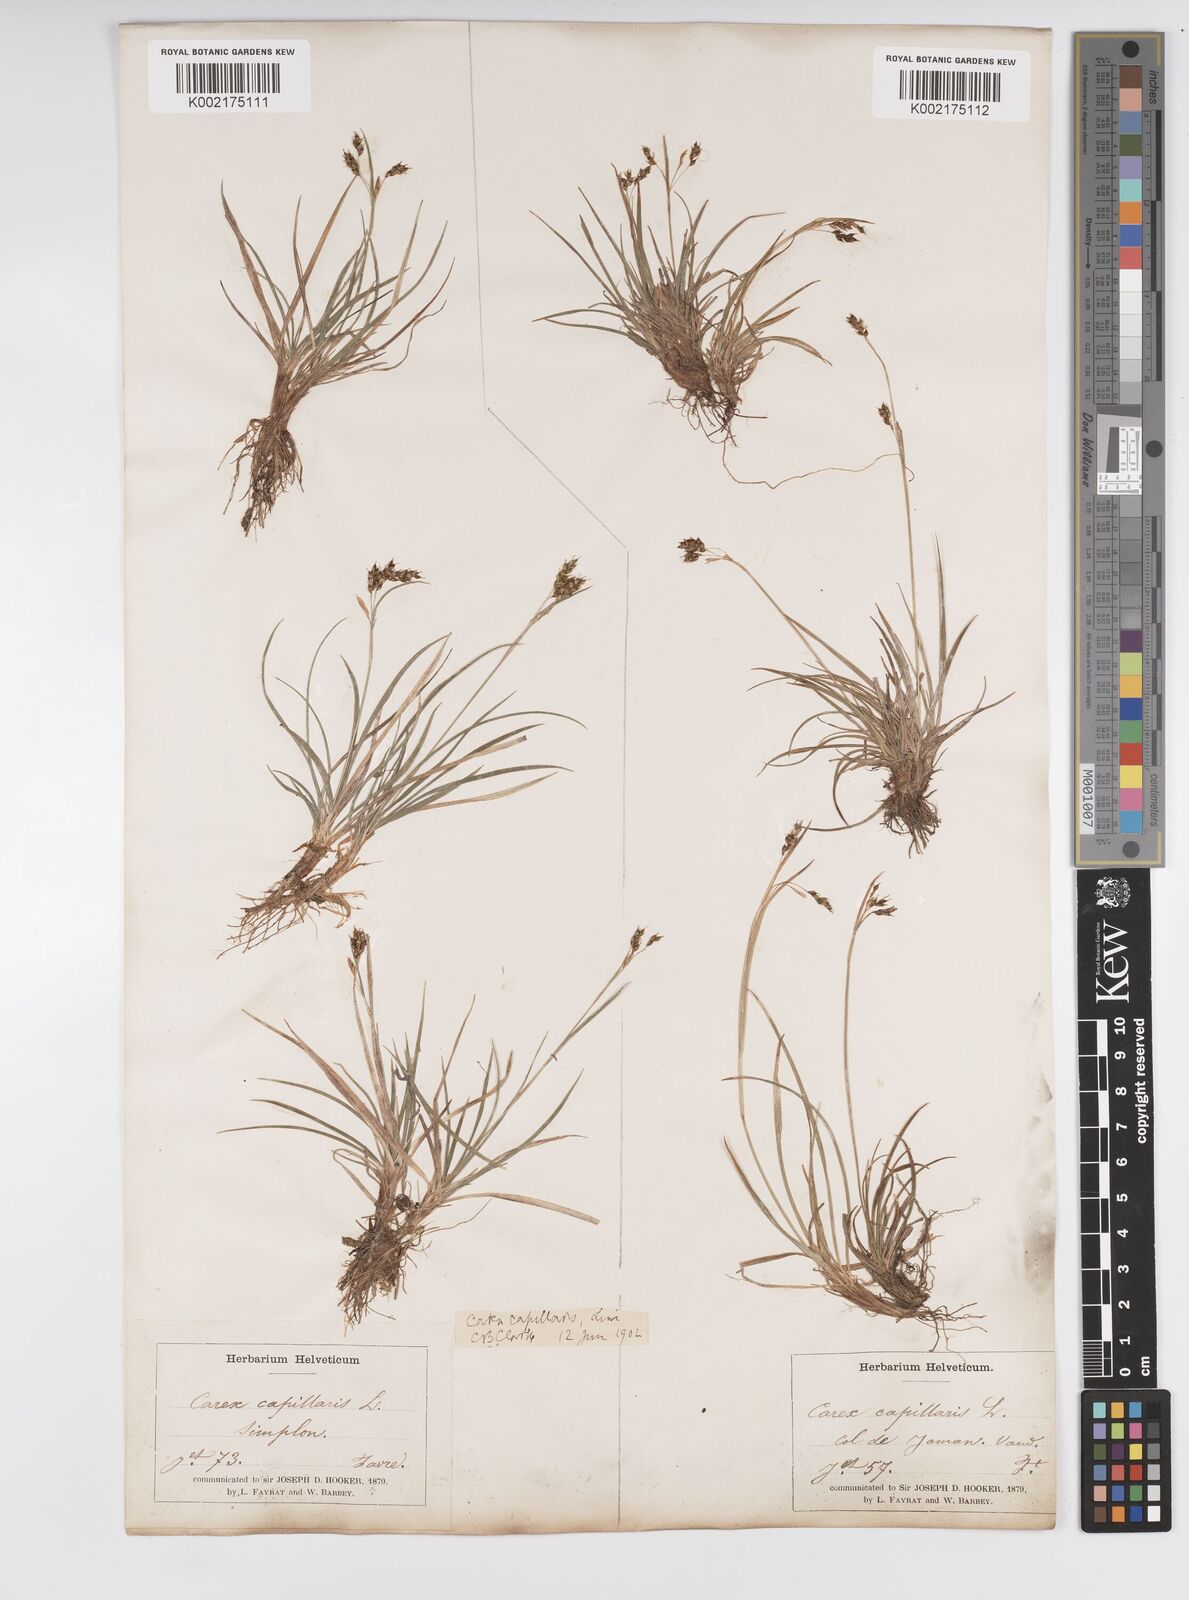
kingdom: Plantae
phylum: Tracheophyta
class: Liliopsida
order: Poales
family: Cyperaceae
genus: Carex
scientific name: Carex capillaris
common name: Hair sedge
